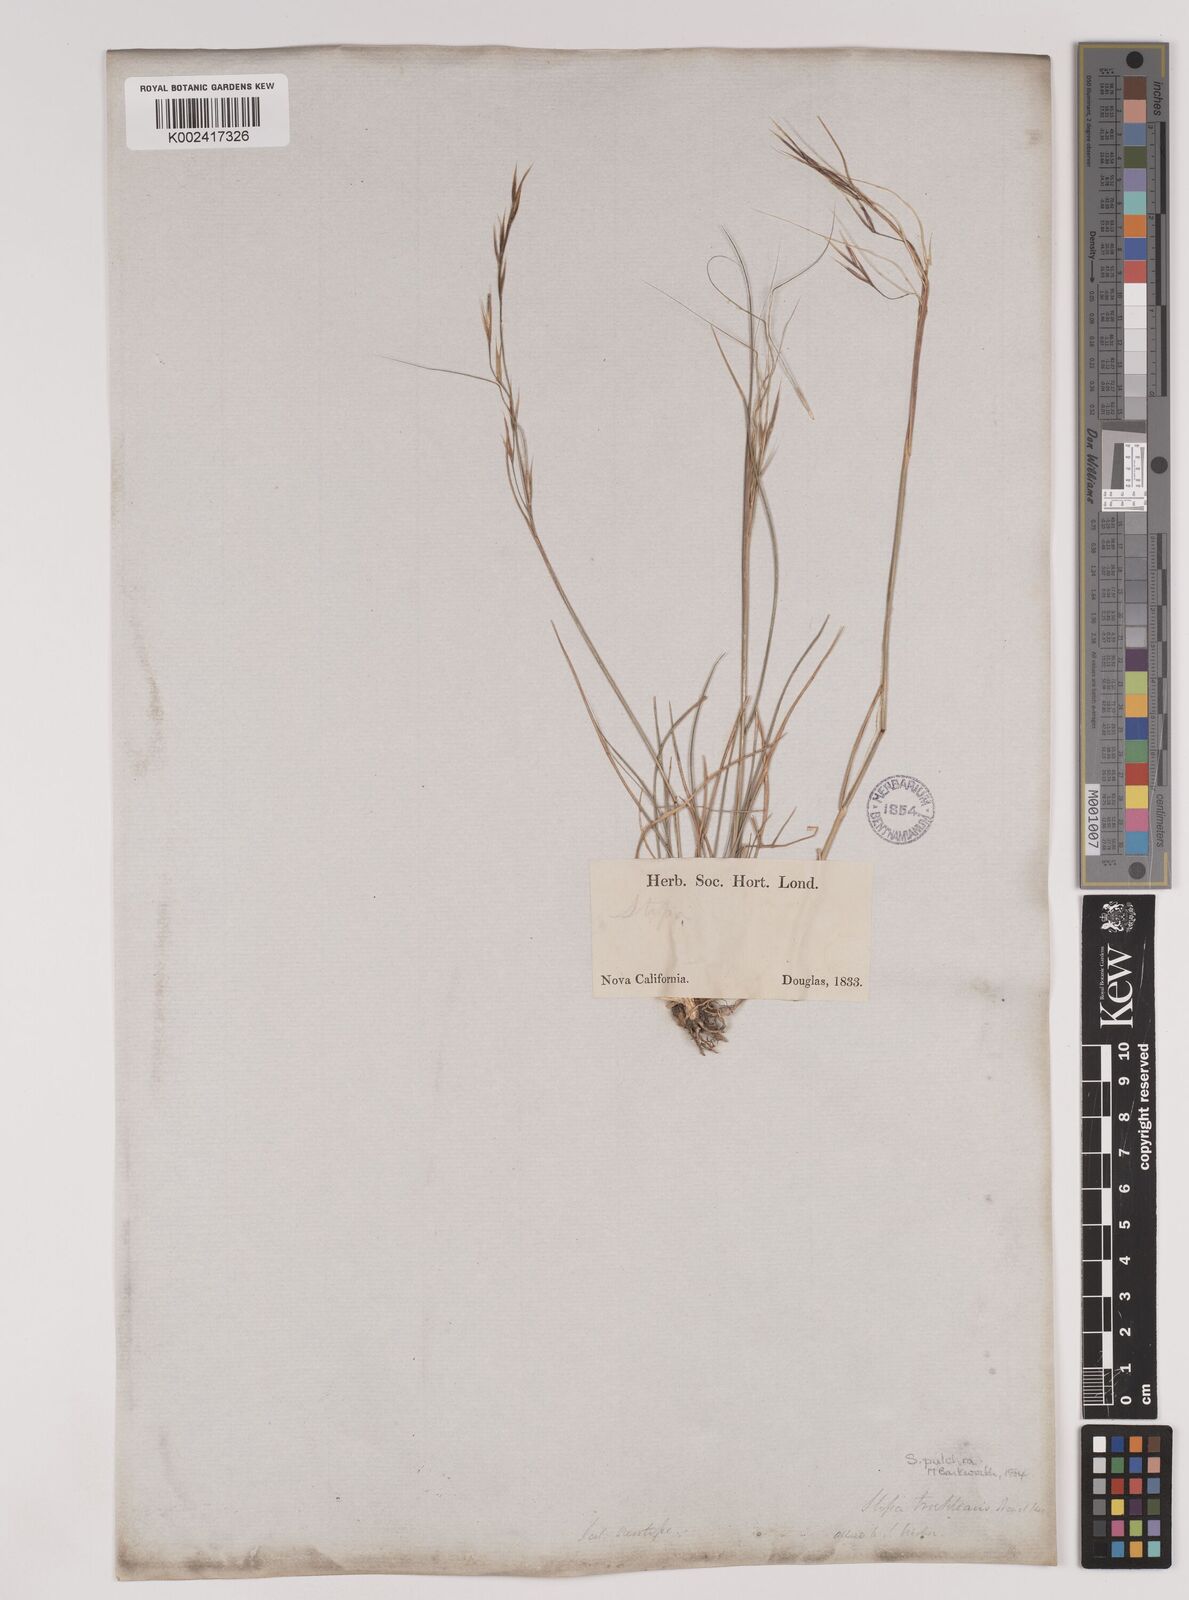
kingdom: Plantae
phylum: Tracheophyta
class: Liliopsida
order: Poales
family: Poaceae
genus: Nassella
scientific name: Nassella pulchra
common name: Purple needlegrass
